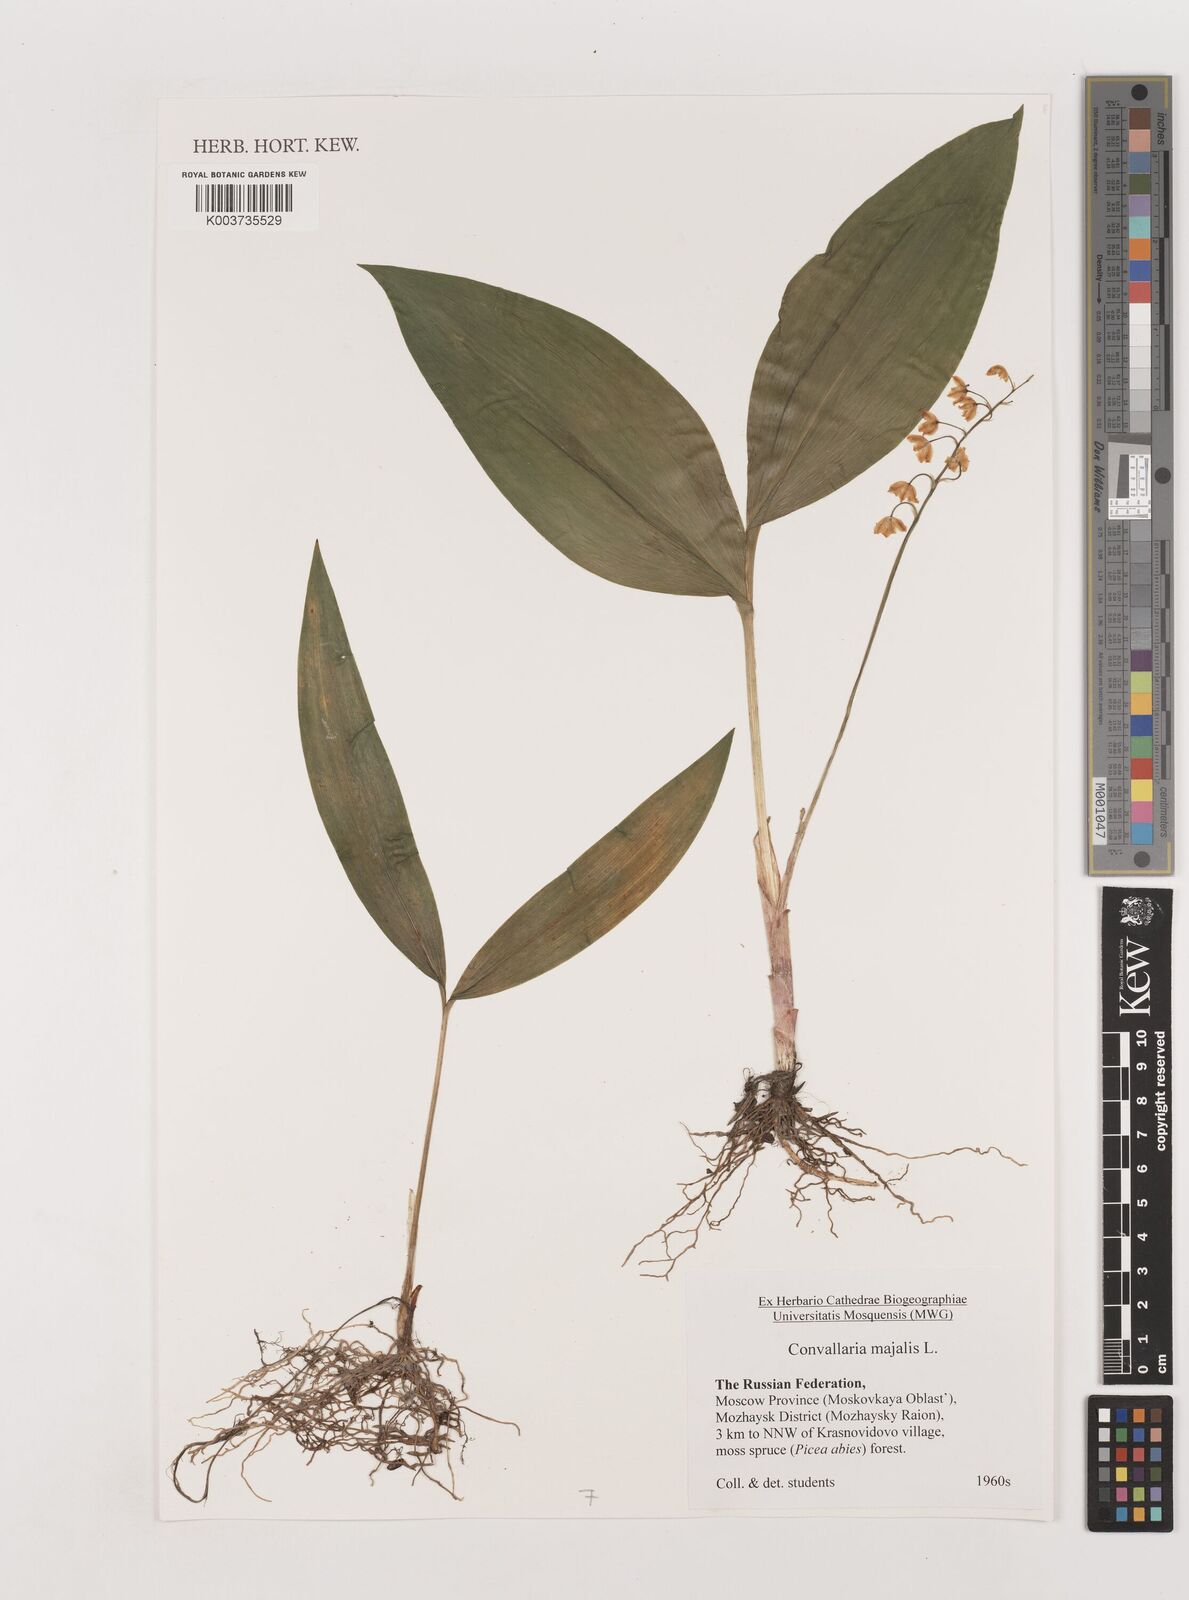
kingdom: Plantae
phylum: Tracheophyta
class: Liliopsida
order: Asparagales
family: Asparagaceae
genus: Convallaria
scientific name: Convallaria majalis
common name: Lily-of-the-valley
